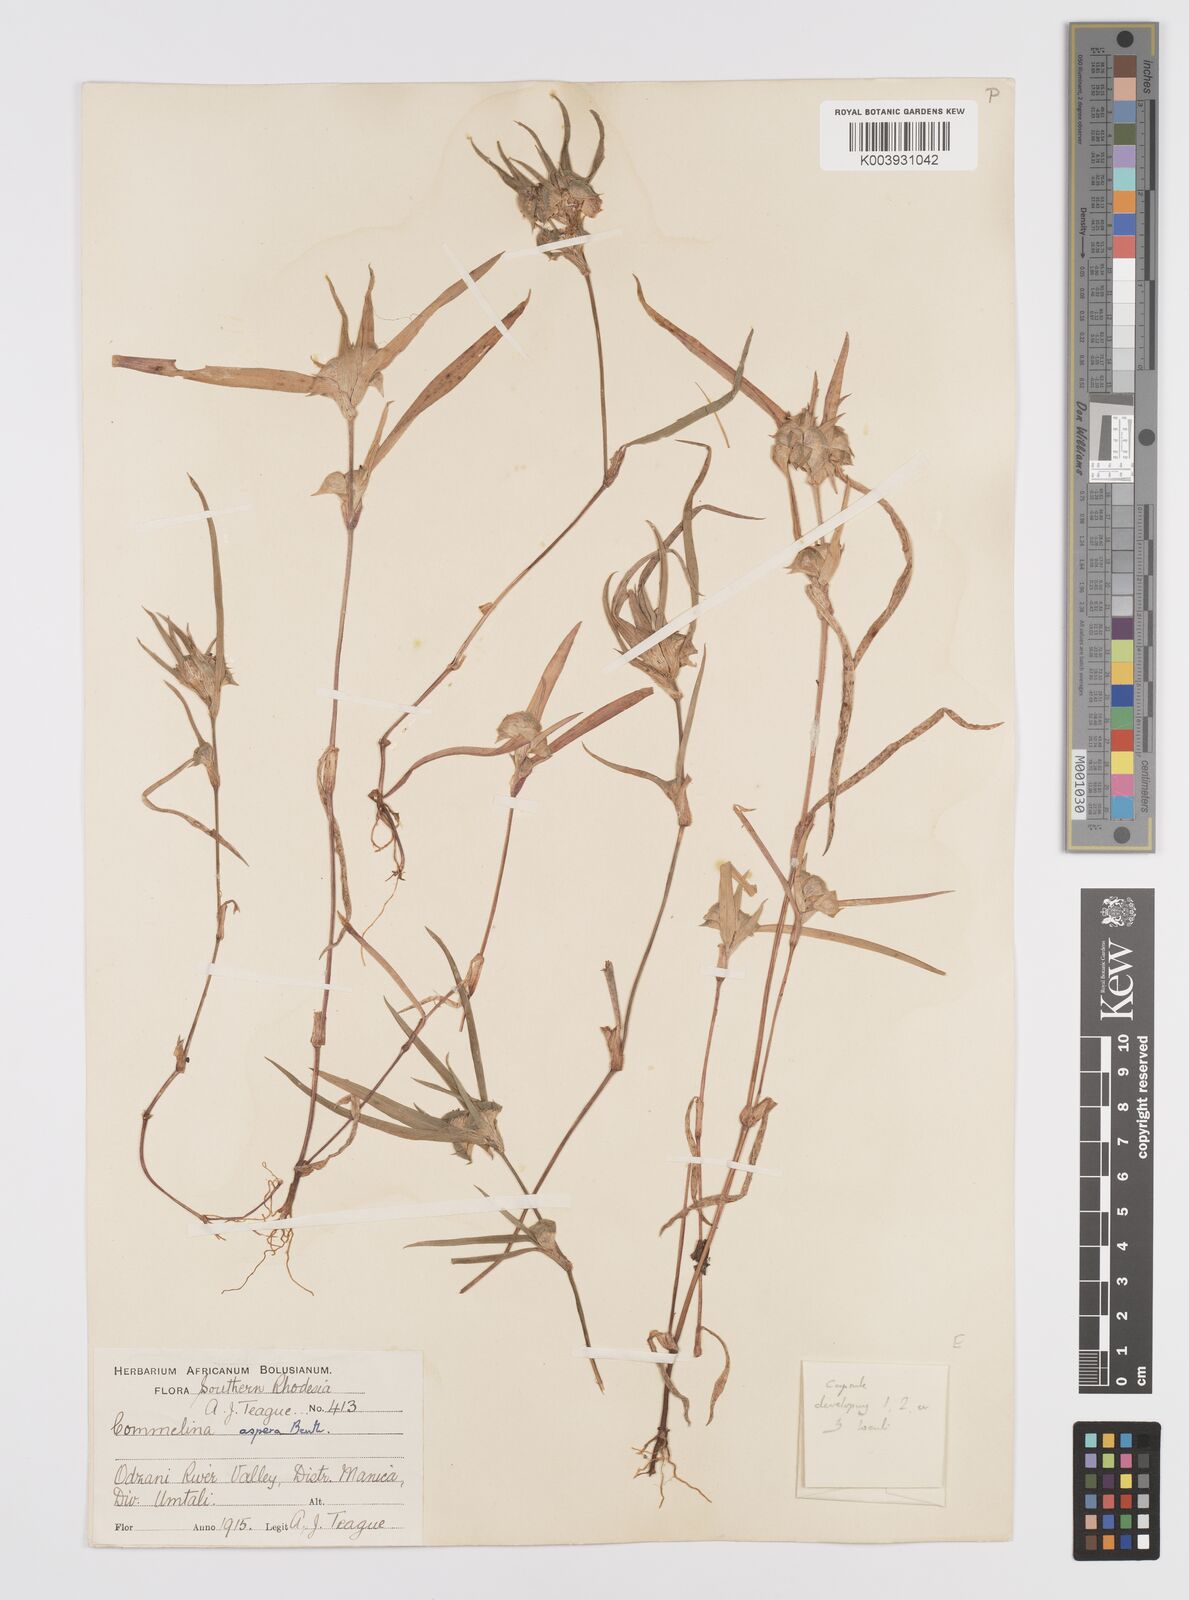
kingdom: Plantae
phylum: Tracheophyta
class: Liliopsida
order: Commelinales
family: Commelinaceae
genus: Commelina
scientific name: Commelina aspera
